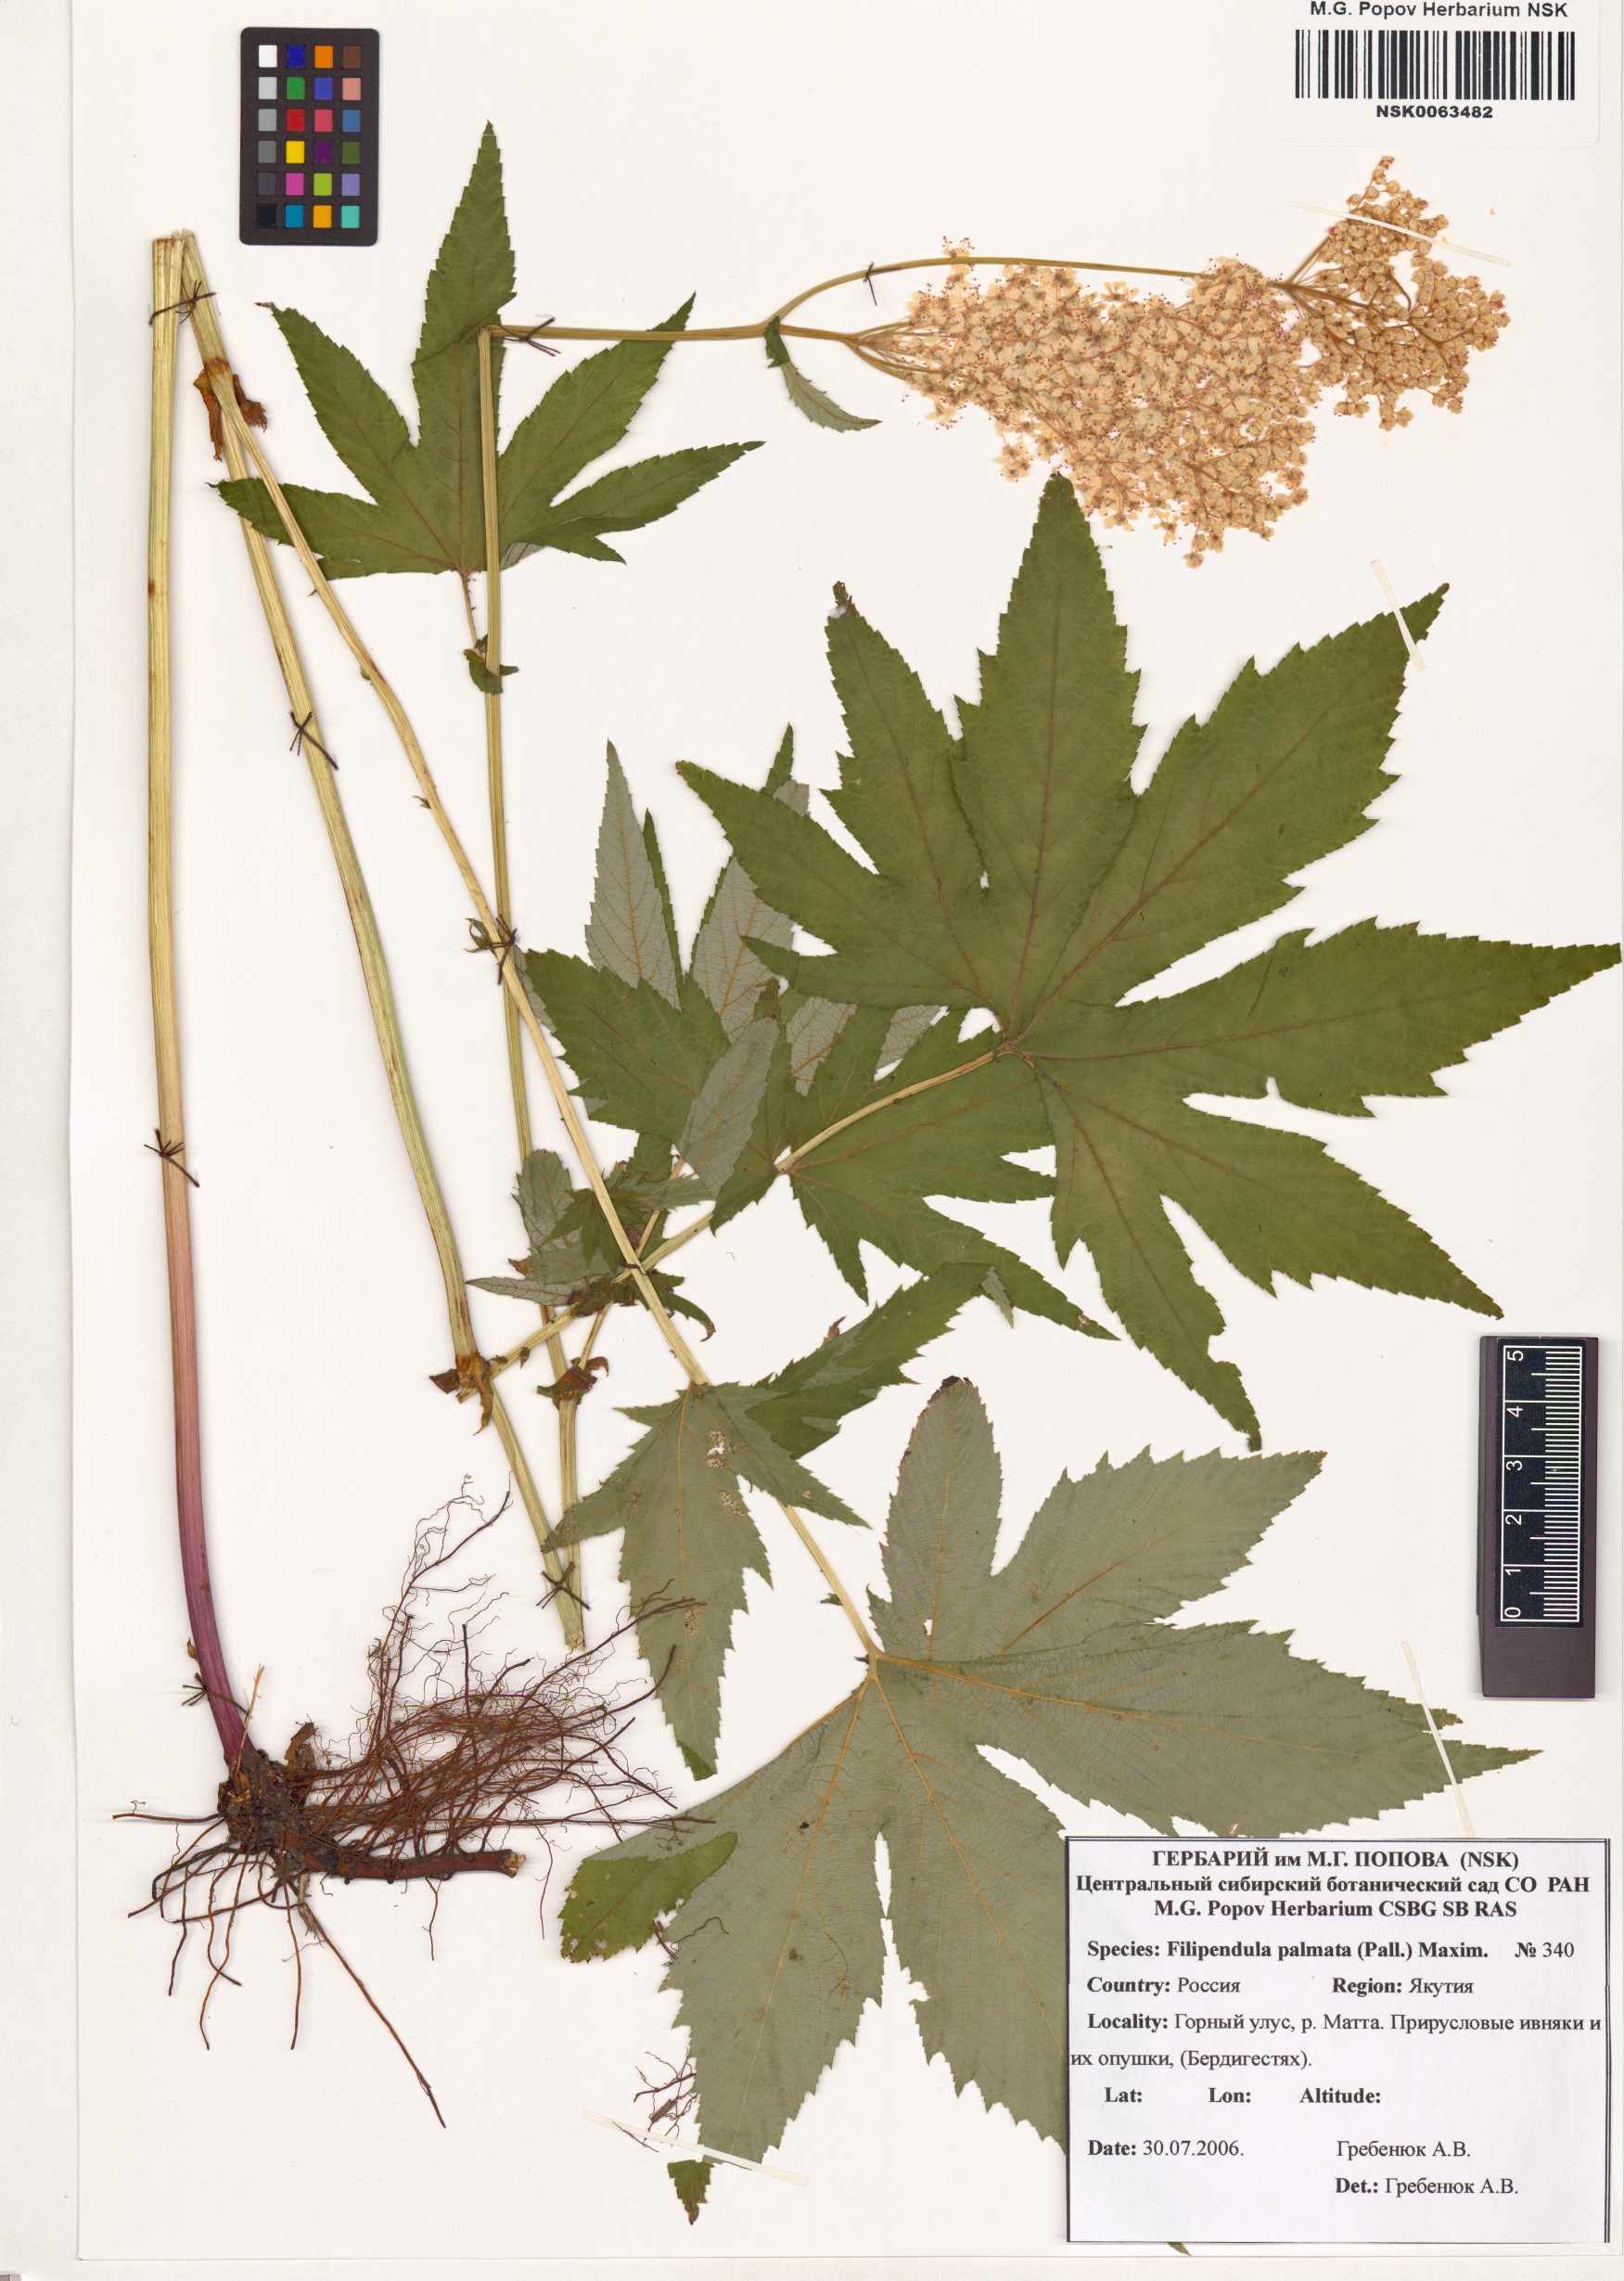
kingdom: Plantae
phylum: Tracheophyta
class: Magnoliopsida
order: Rosales
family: Rosaceae
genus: Filipendula
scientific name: Filipendula digitata
